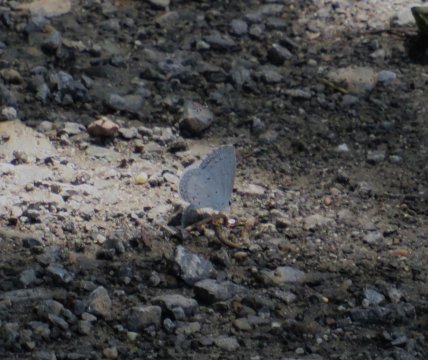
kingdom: Animalia
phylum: Arthropoda
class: Insecta
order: Lepidoptera
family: Lycaenidae
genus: Cyaniris
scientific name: Cyaniris neglecta
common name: Summer Azure
